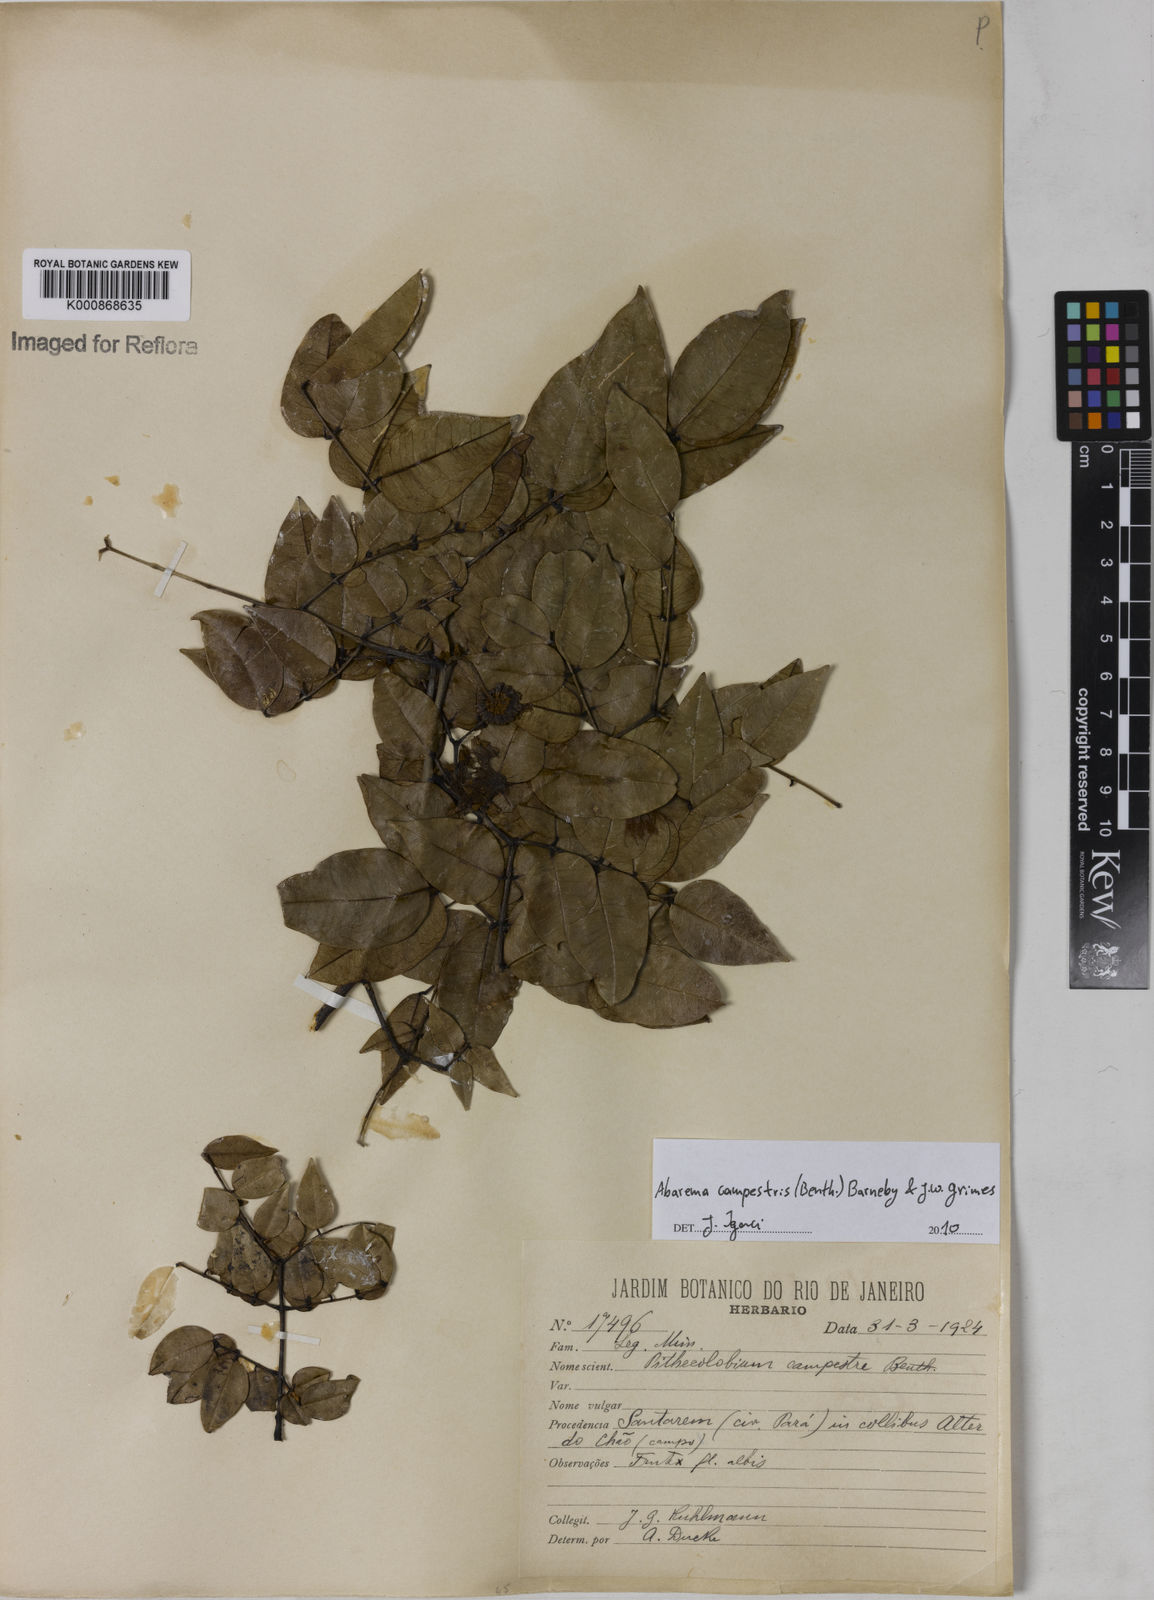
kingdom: Plantae
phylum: Tracheophyta
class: Magnoliopsida
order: Fabales
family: Fabaceae
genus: Jupunba
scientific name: Jupunba campestris
